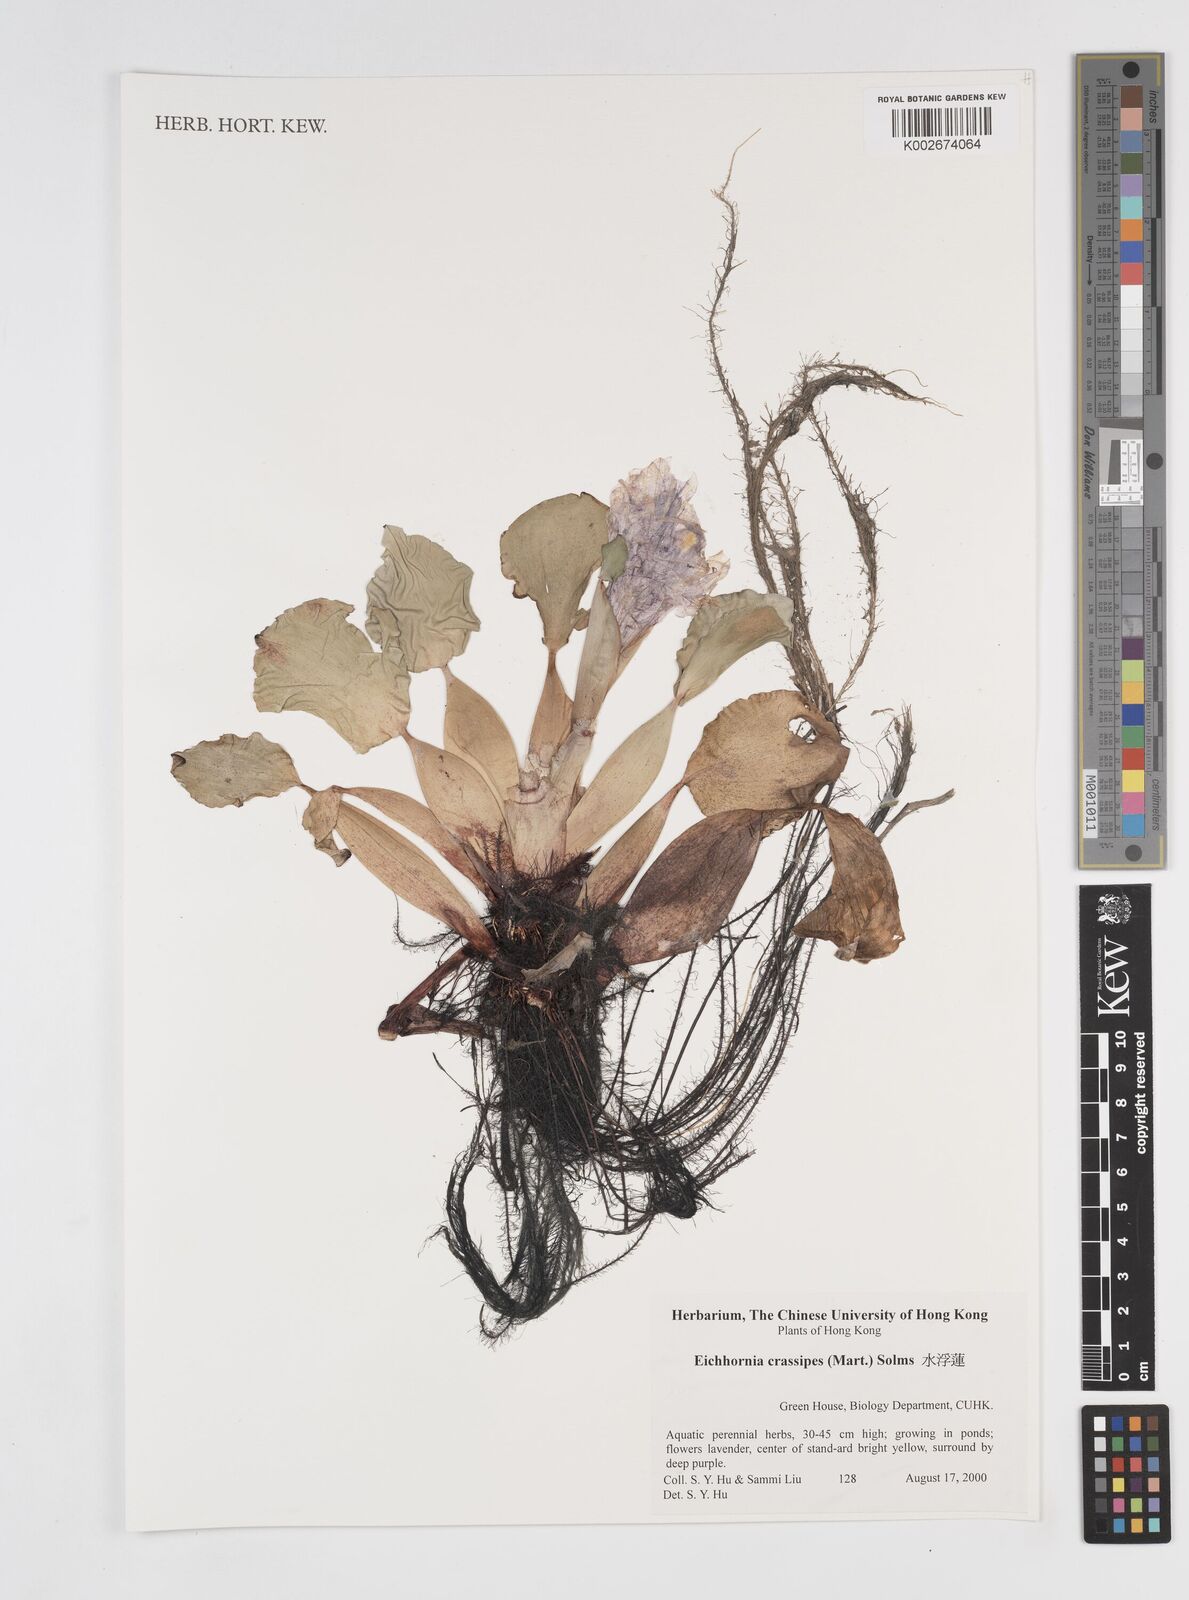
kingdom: Plantae
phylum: Tracheophyta
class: Liliopsida
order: Commelinales
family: Pontederiaceae
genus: Pontederia
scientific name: Pontederia crassipes
